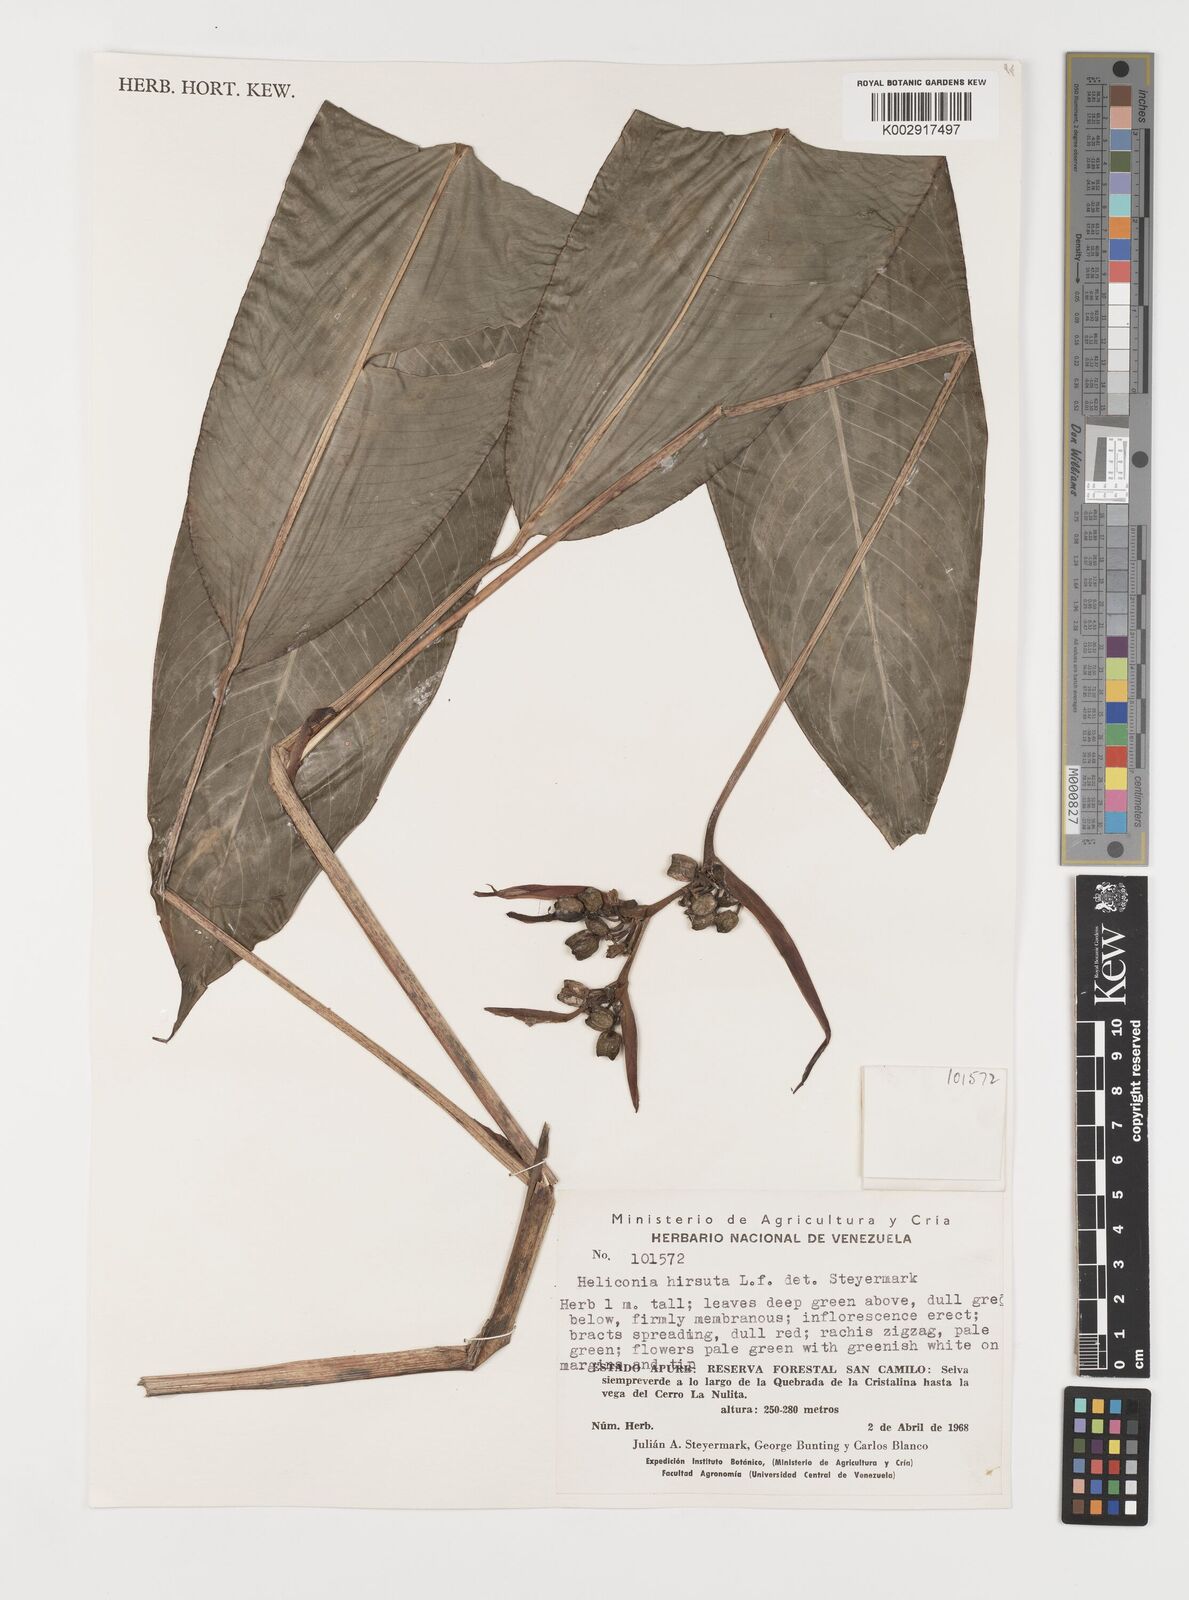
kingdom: Plantae
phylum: Tracheophyta
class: Liliopsida
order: Zingiberales
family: Heliconiaceae
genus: Heliconia
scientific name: Heliconia hirsuta
